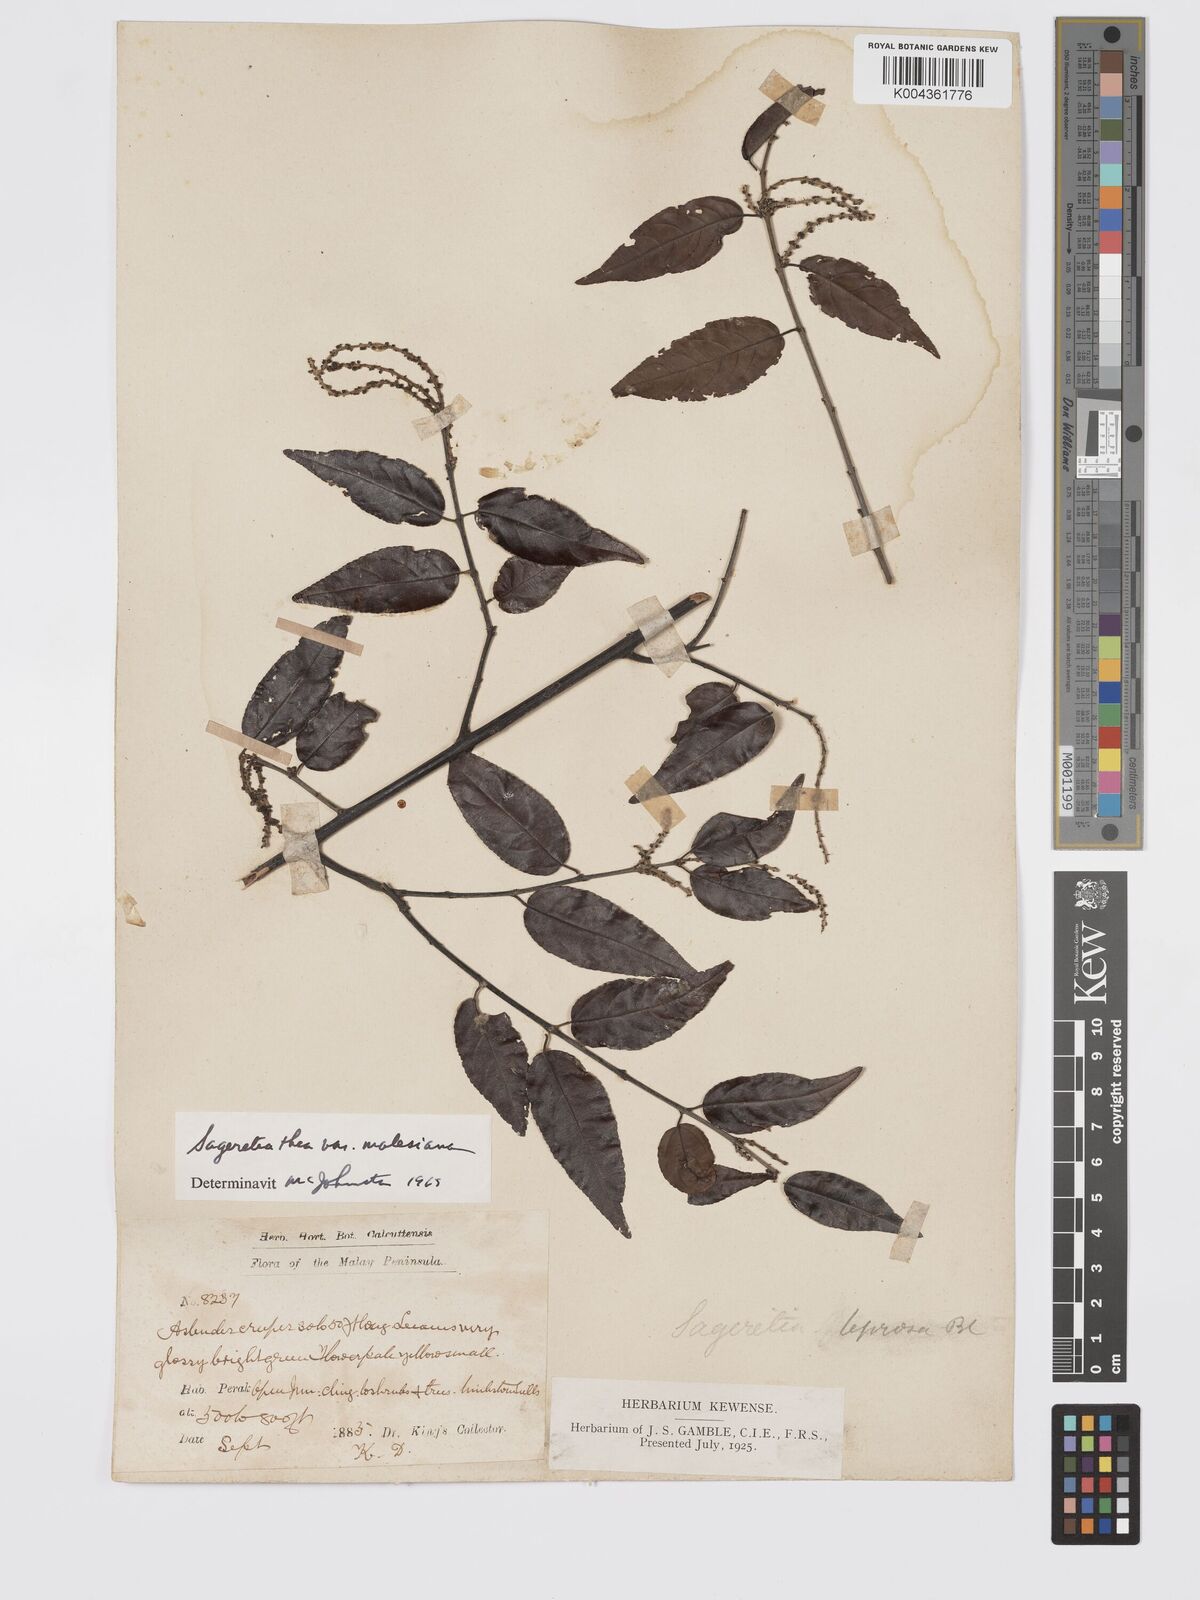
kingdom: Plantae
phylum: Tracheophyta
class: Magnoliopsida
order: Rosales
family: Rhamnaceae
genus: Sageretia
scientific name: Sageretia parviflora
